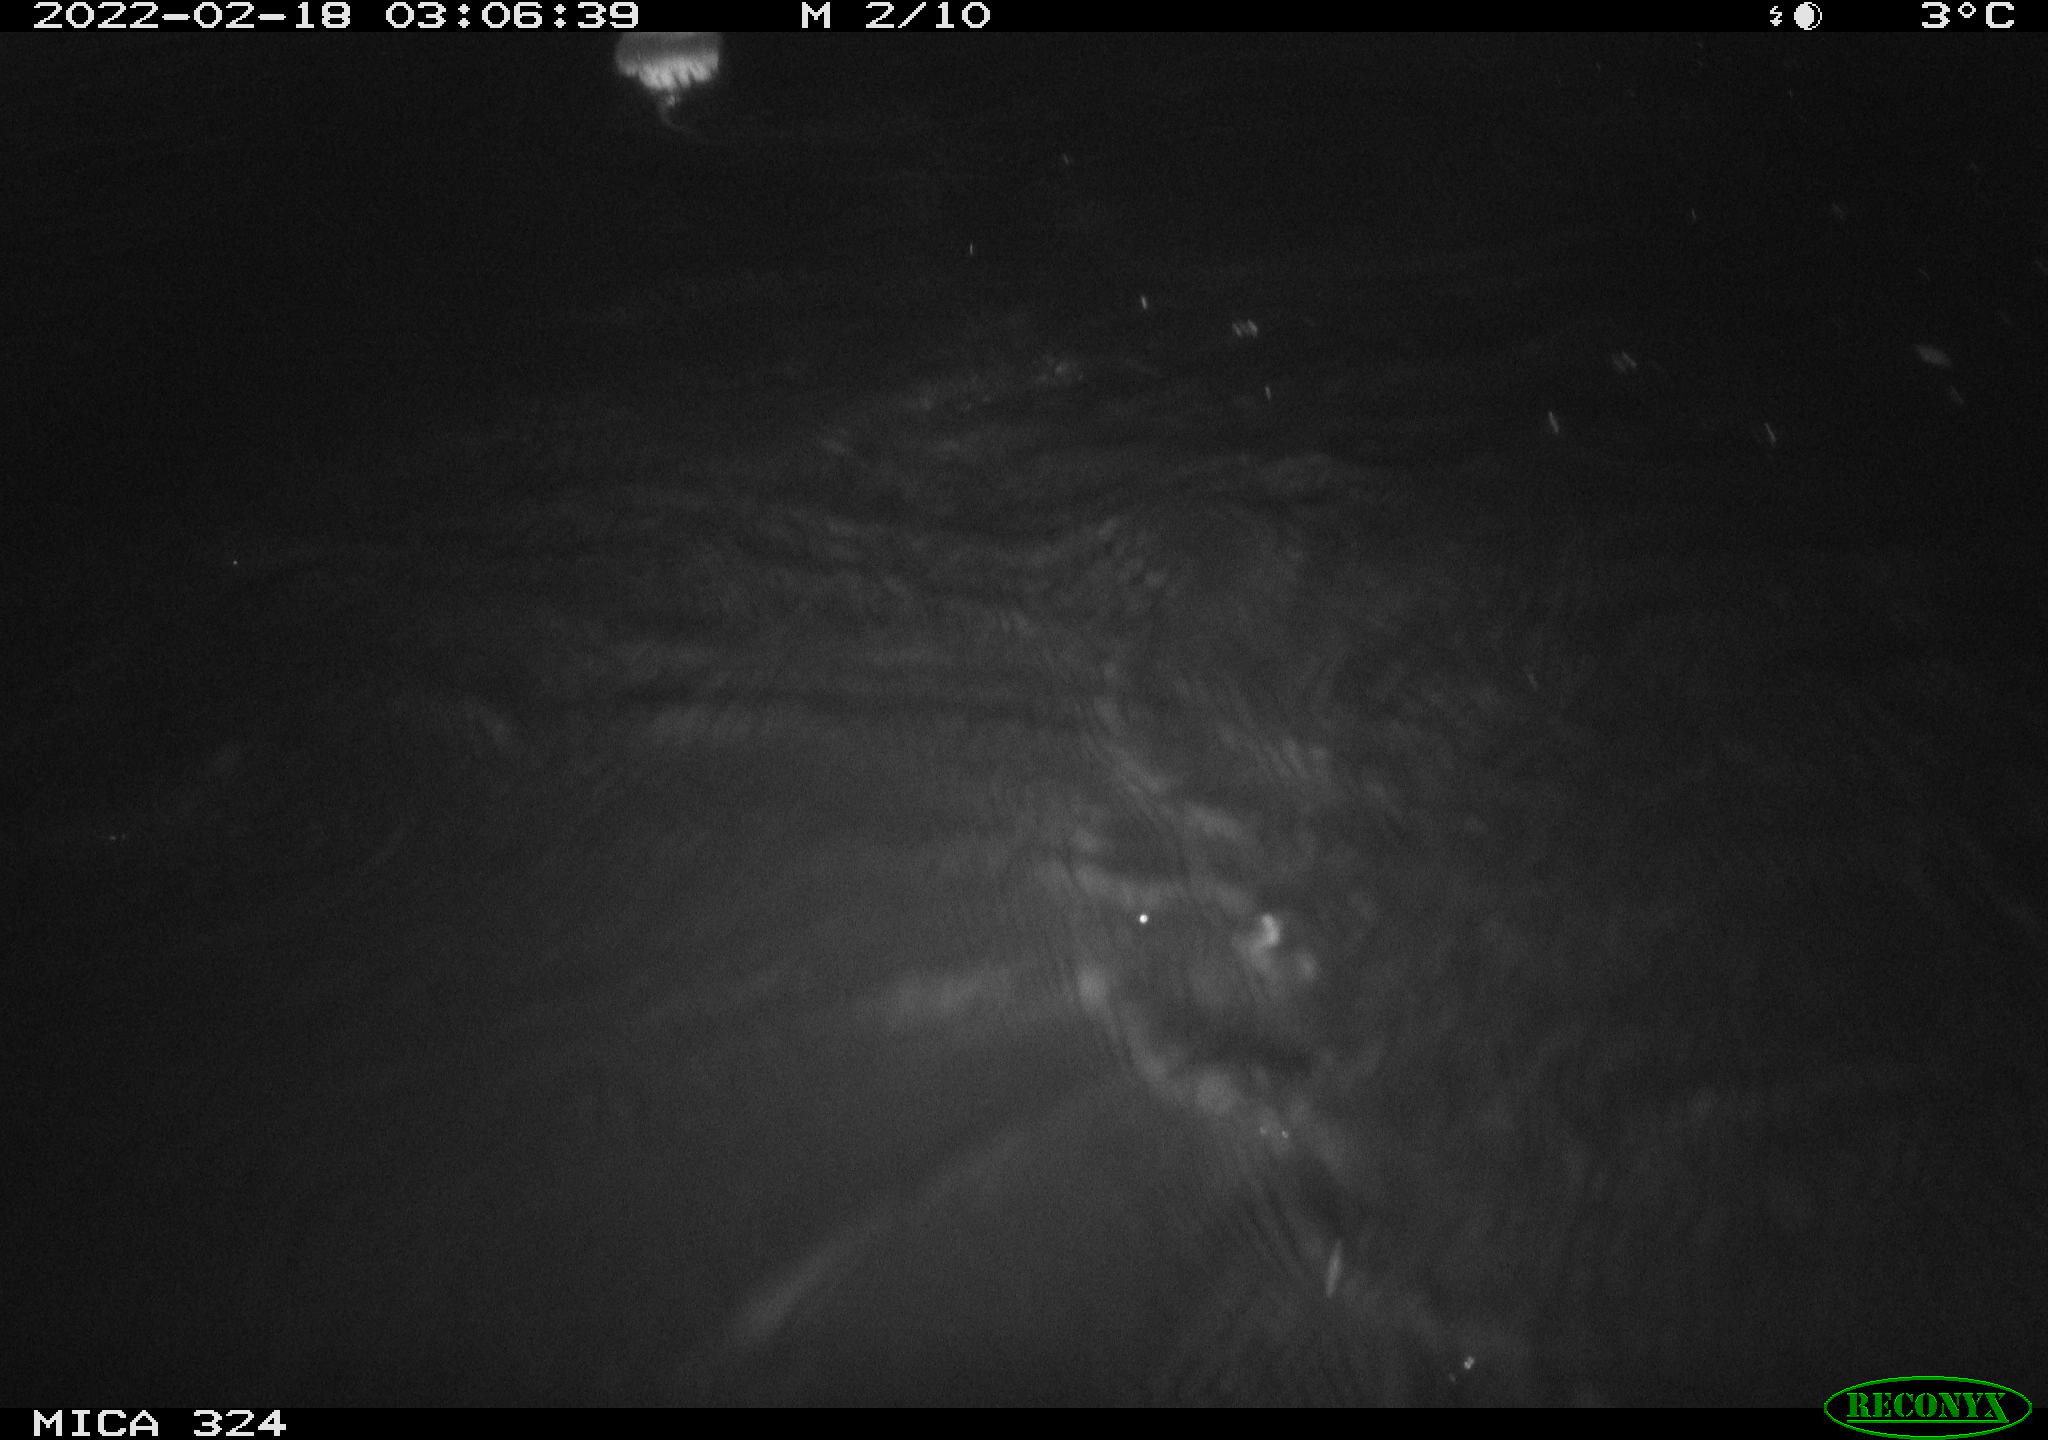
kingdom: Animalia
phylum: Chordata
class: Mammalia
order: Rodentia
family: Cricetidae
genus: Ondatra
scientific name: Ondatra zibethicus
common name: Muskrat
